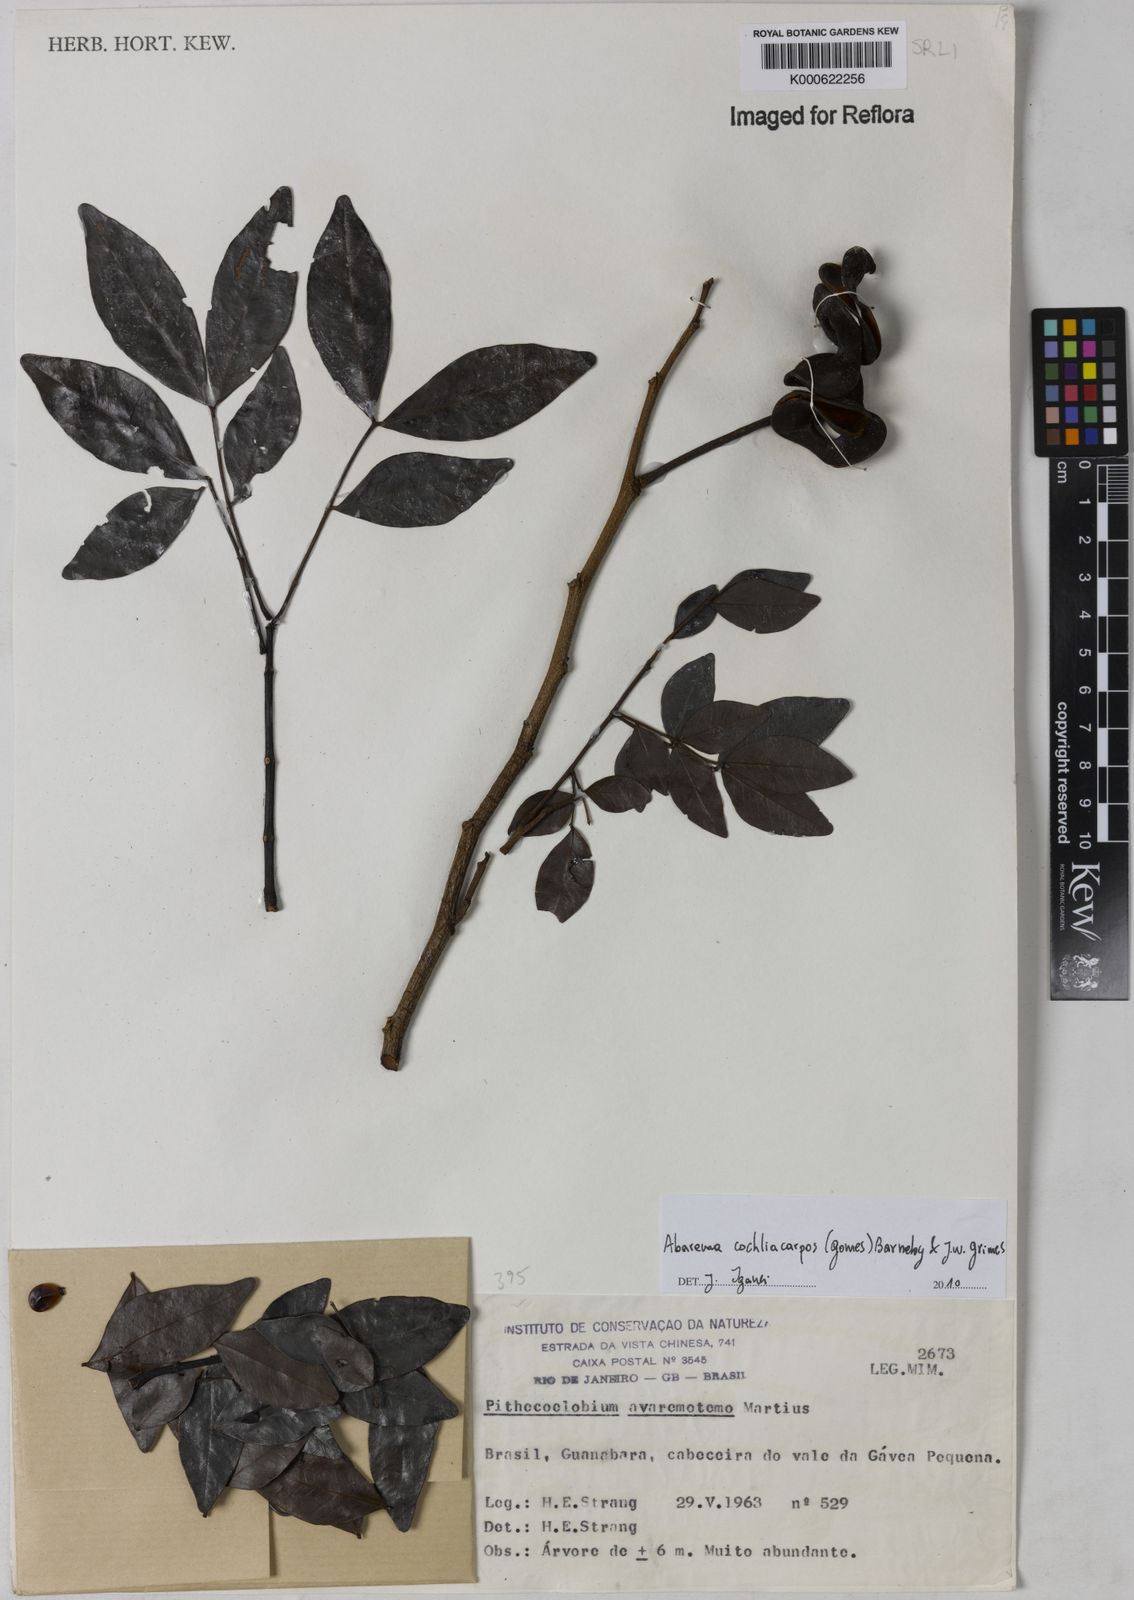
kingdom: Plantae
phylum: Tracheophyta
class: Magnoliopsida
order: Fabales
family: Fabaceae
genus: Abarema
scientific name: Abarema
